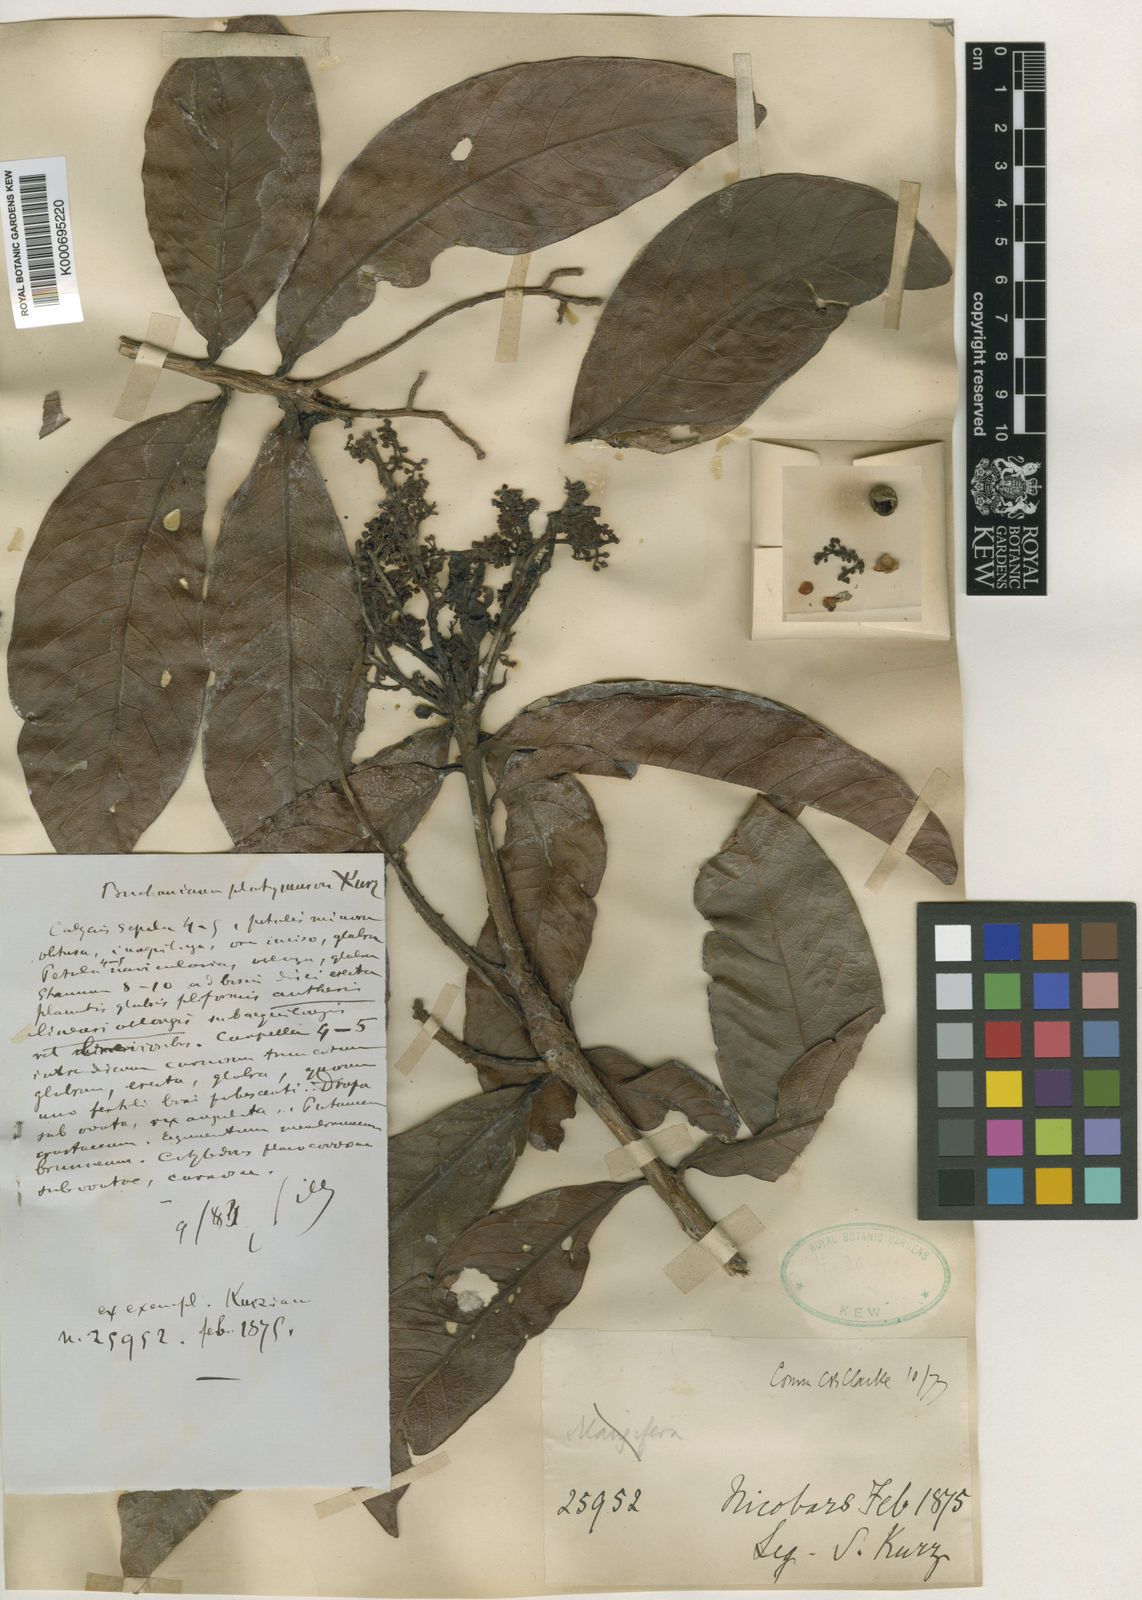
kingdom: Plantae
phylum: Tracheophyta
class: Magnoliopsida
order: Sapindales
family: Anacardiaceae
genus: Buchanania
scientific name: Buchanania splendens
